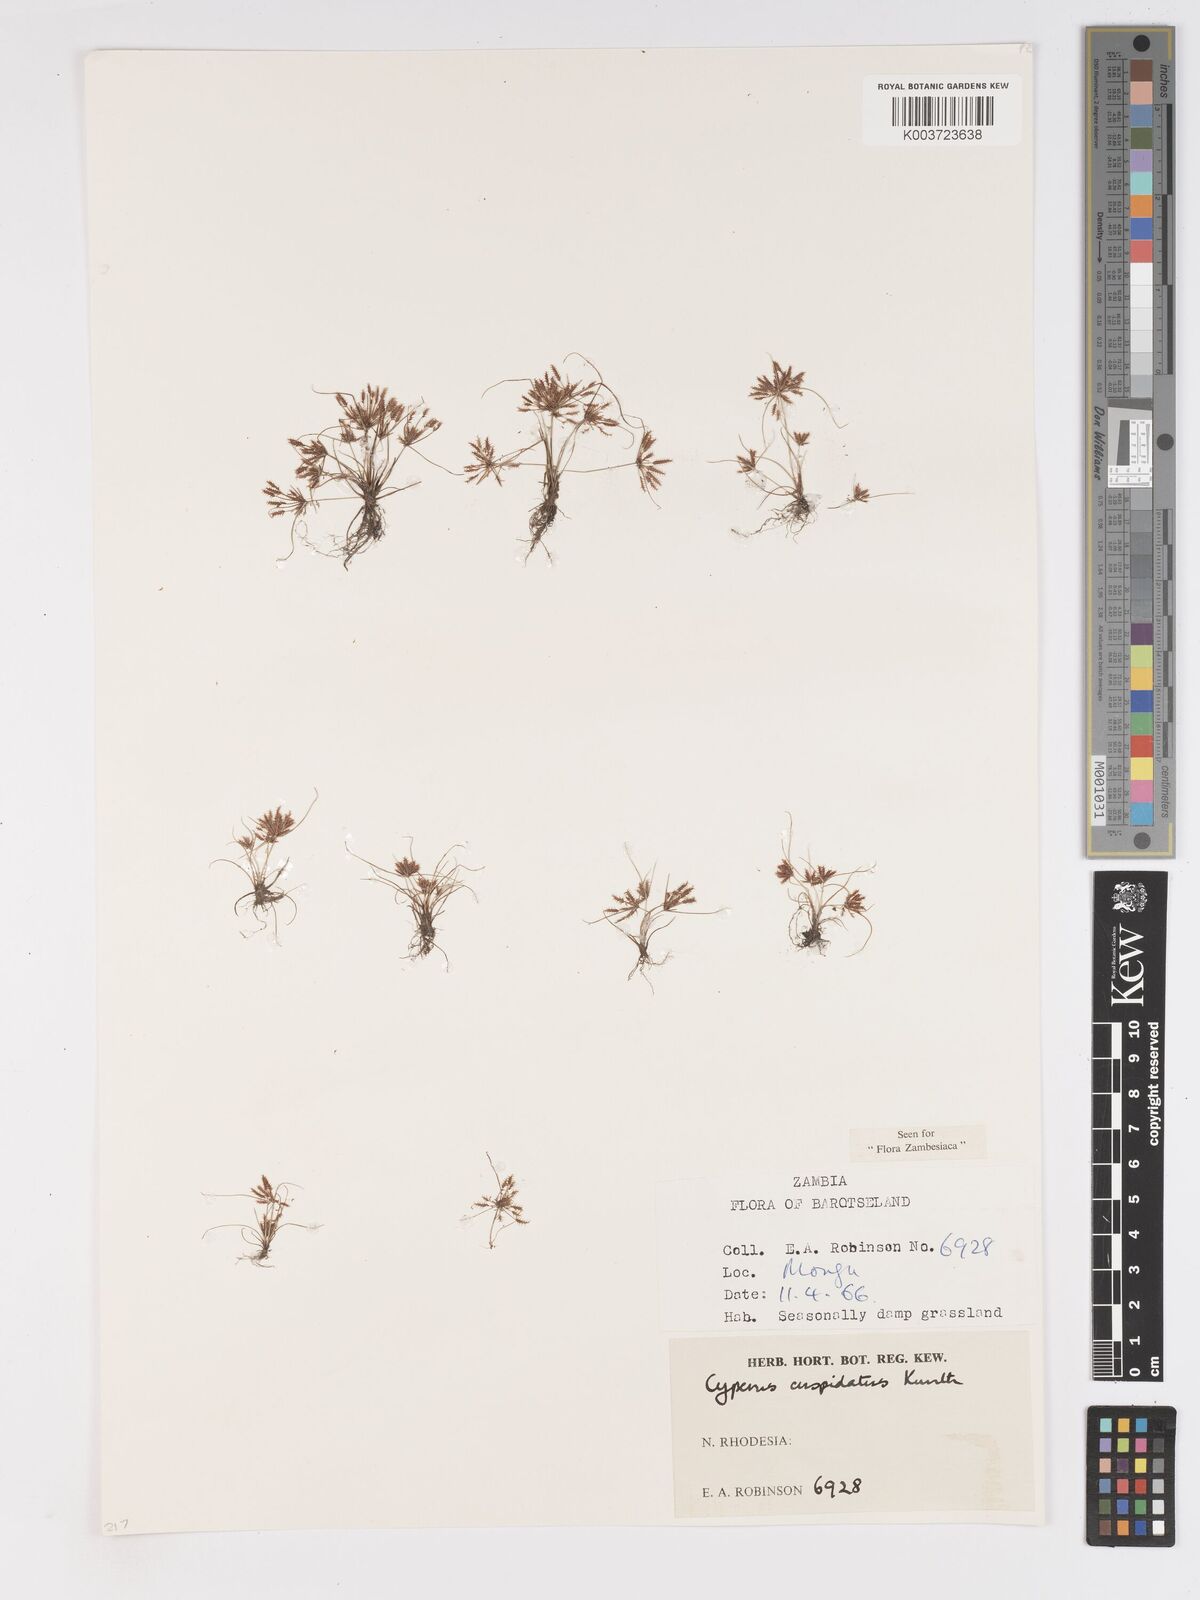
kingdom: Plantae
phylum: Tracheophyta
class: Liliopsida
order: Poales
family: Cyperaceae
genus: Cyperus
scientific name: Cyperus betafensis
